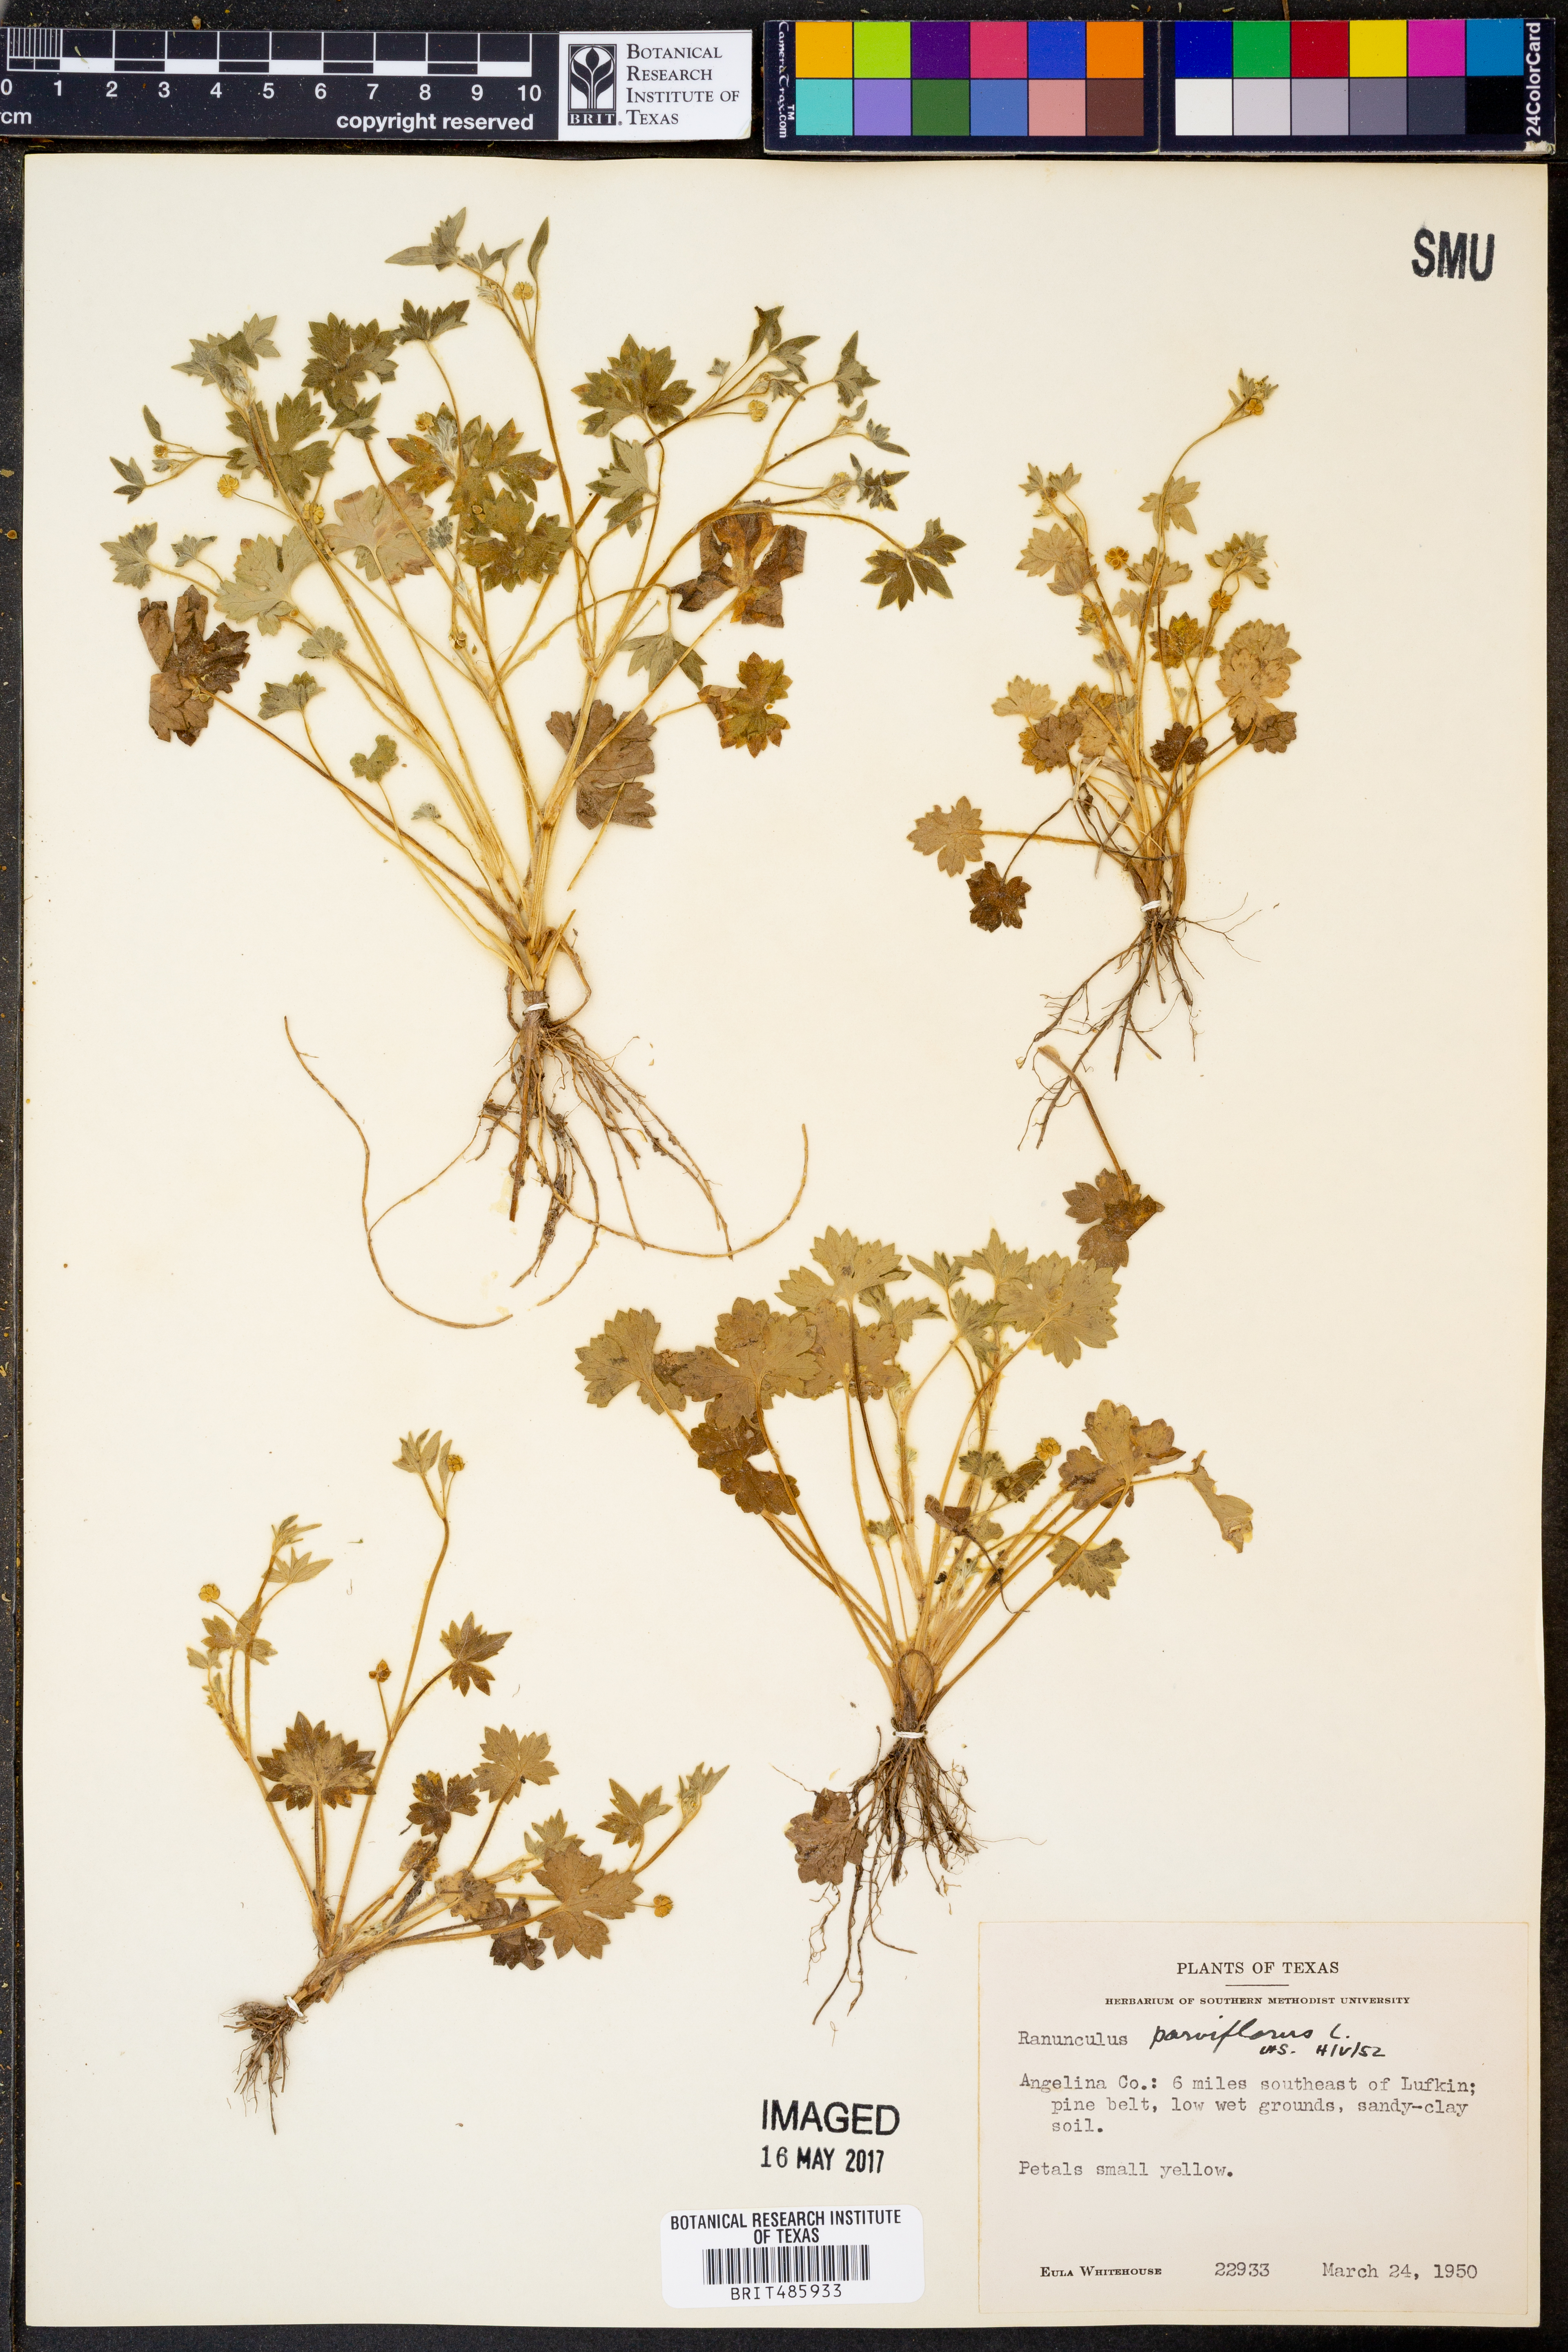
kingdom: Plantae
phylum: Tracheophyta
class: Magnoliopsida
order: Ranunculales
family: Ranunculaceae
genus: Ranunculus
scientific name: Ranunculus parviflorus
